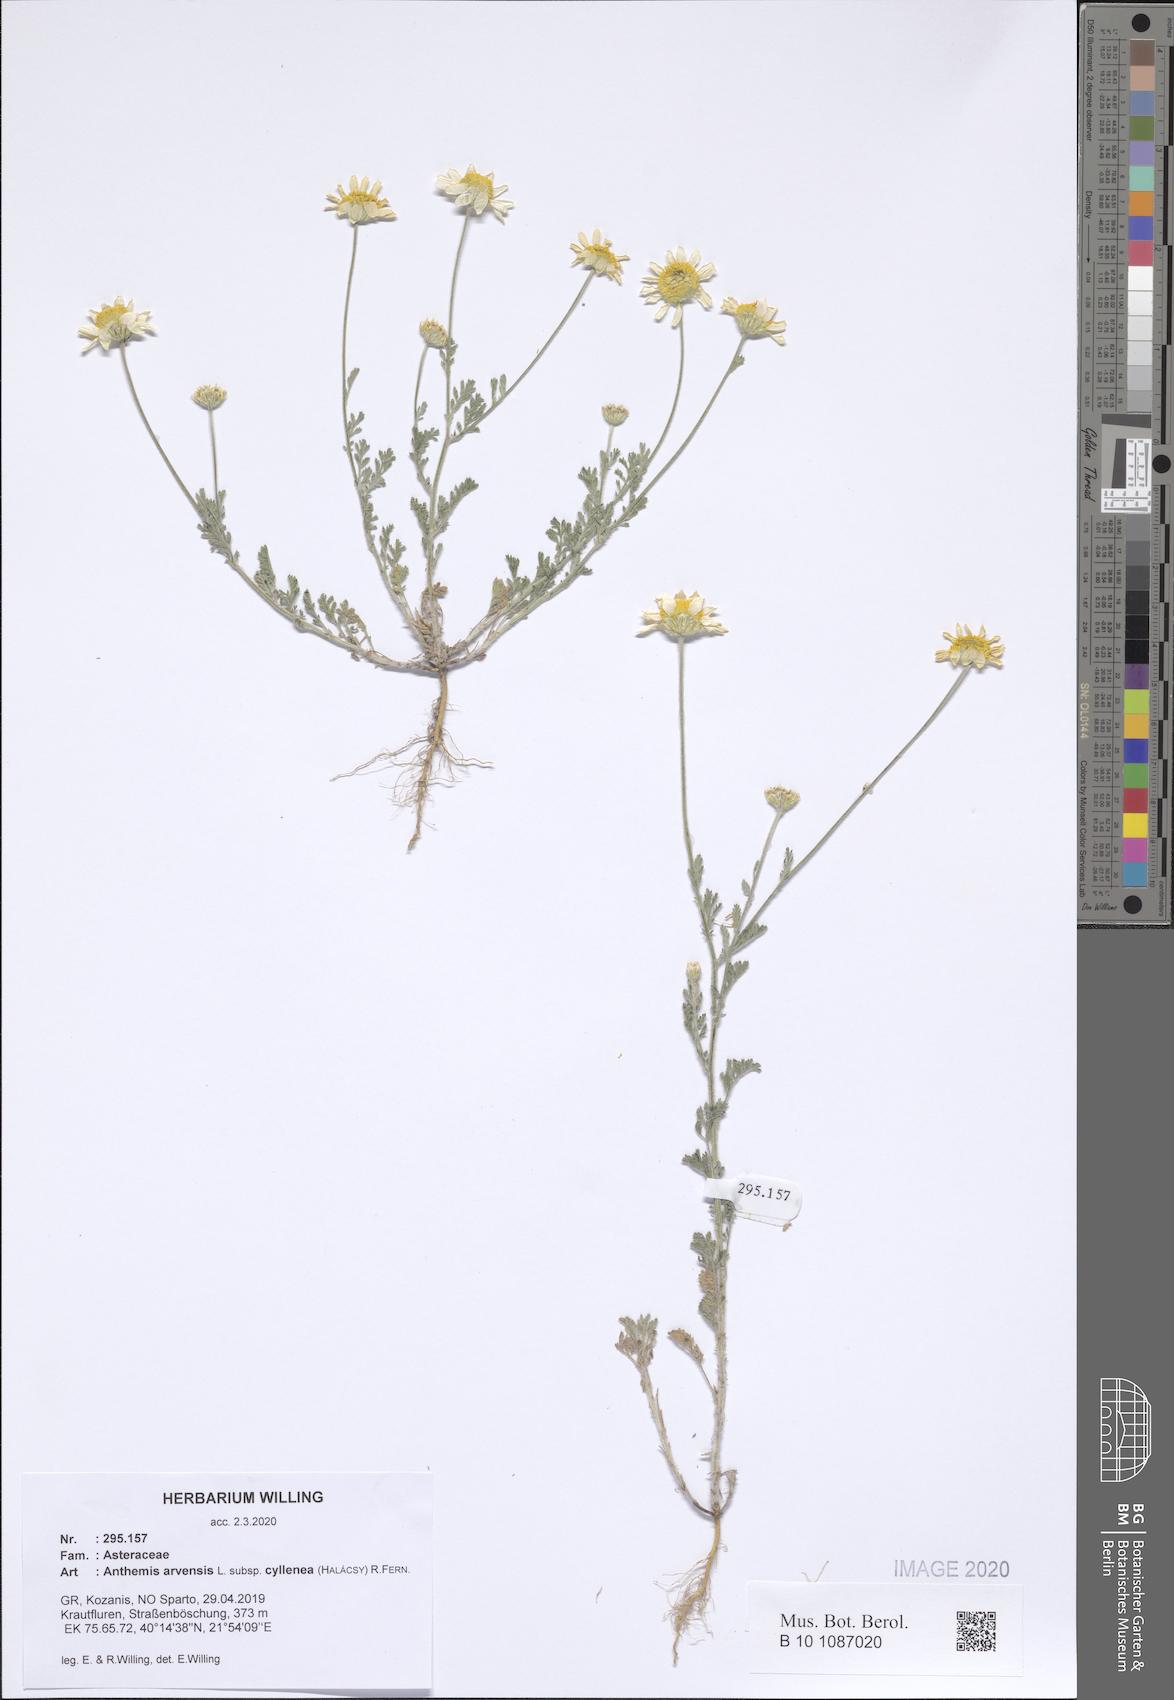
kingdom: Plantae
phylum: Tracheophyta
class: Magnoliopsida
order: Asterales
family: Asteraceae
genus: Anthemis
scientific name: Anthemis arvensis
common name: Corn chamomile
